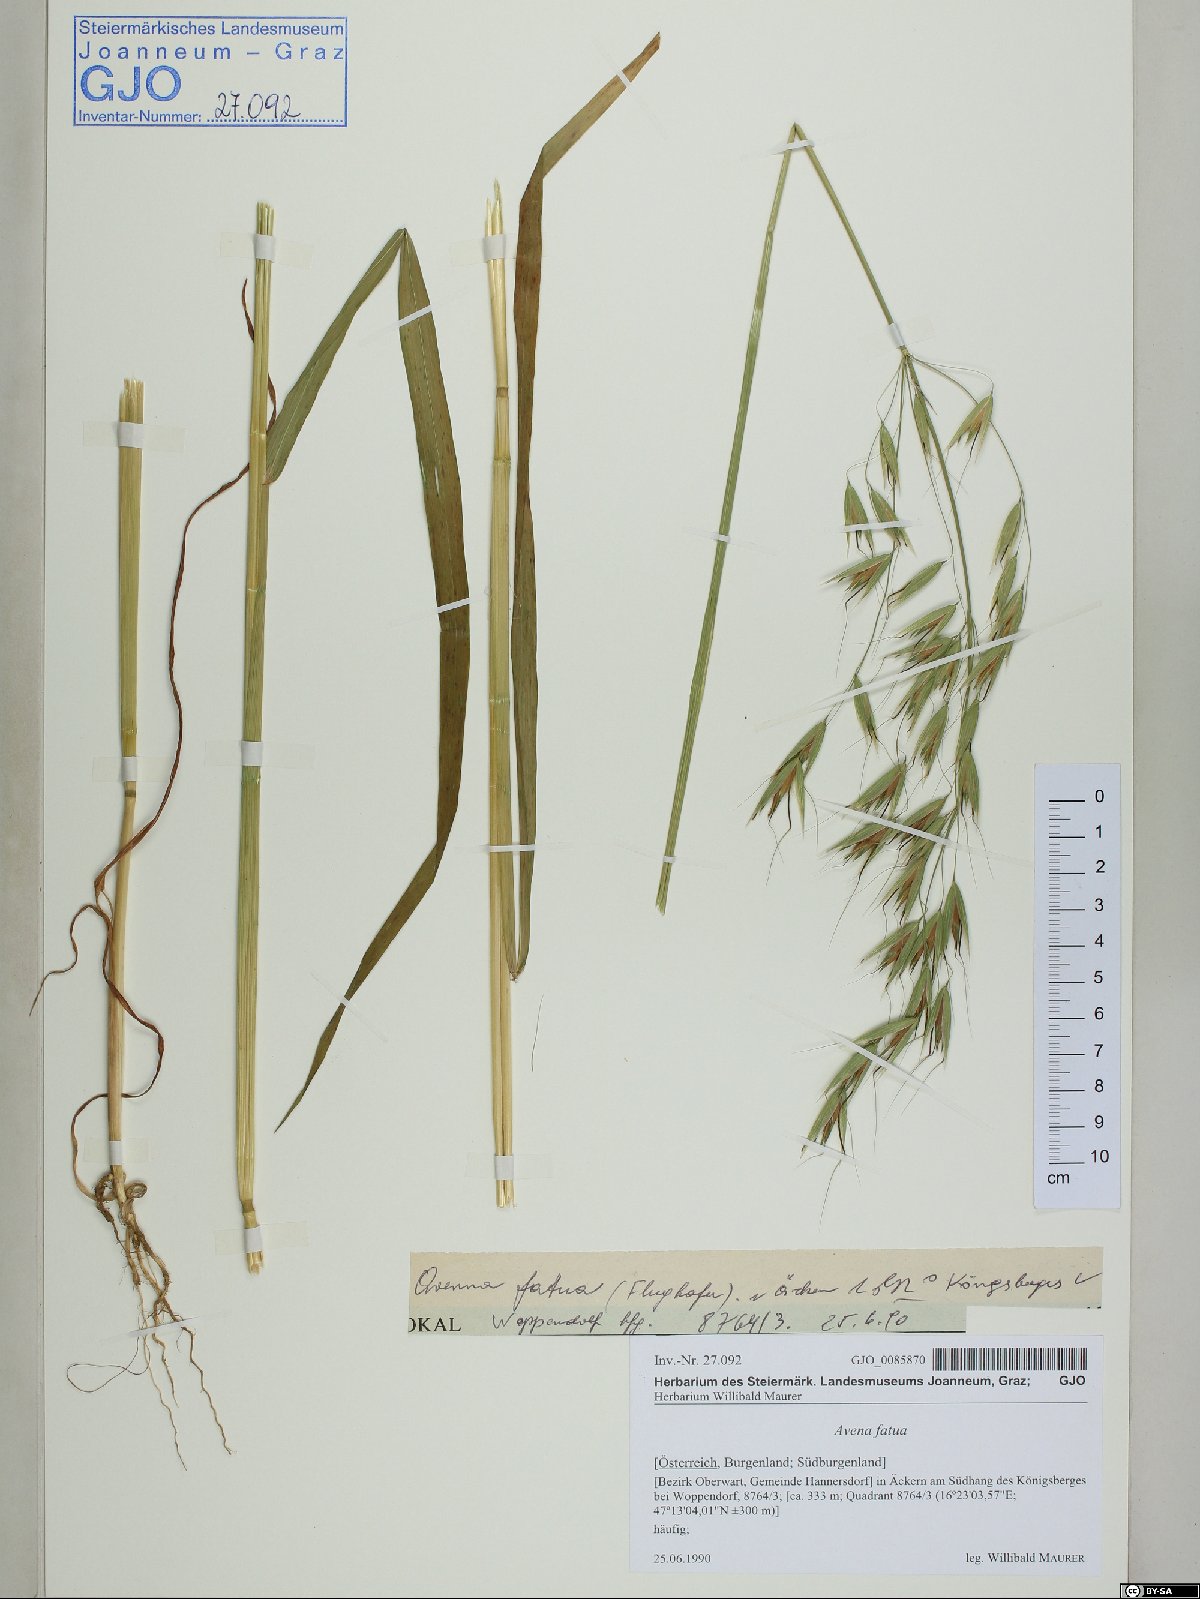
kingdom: Plantae
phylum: Tracheophyta
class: Liliopsida
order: Poales
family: Poaceae
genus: Avena
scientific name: Avena fatua
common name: Wild oat
